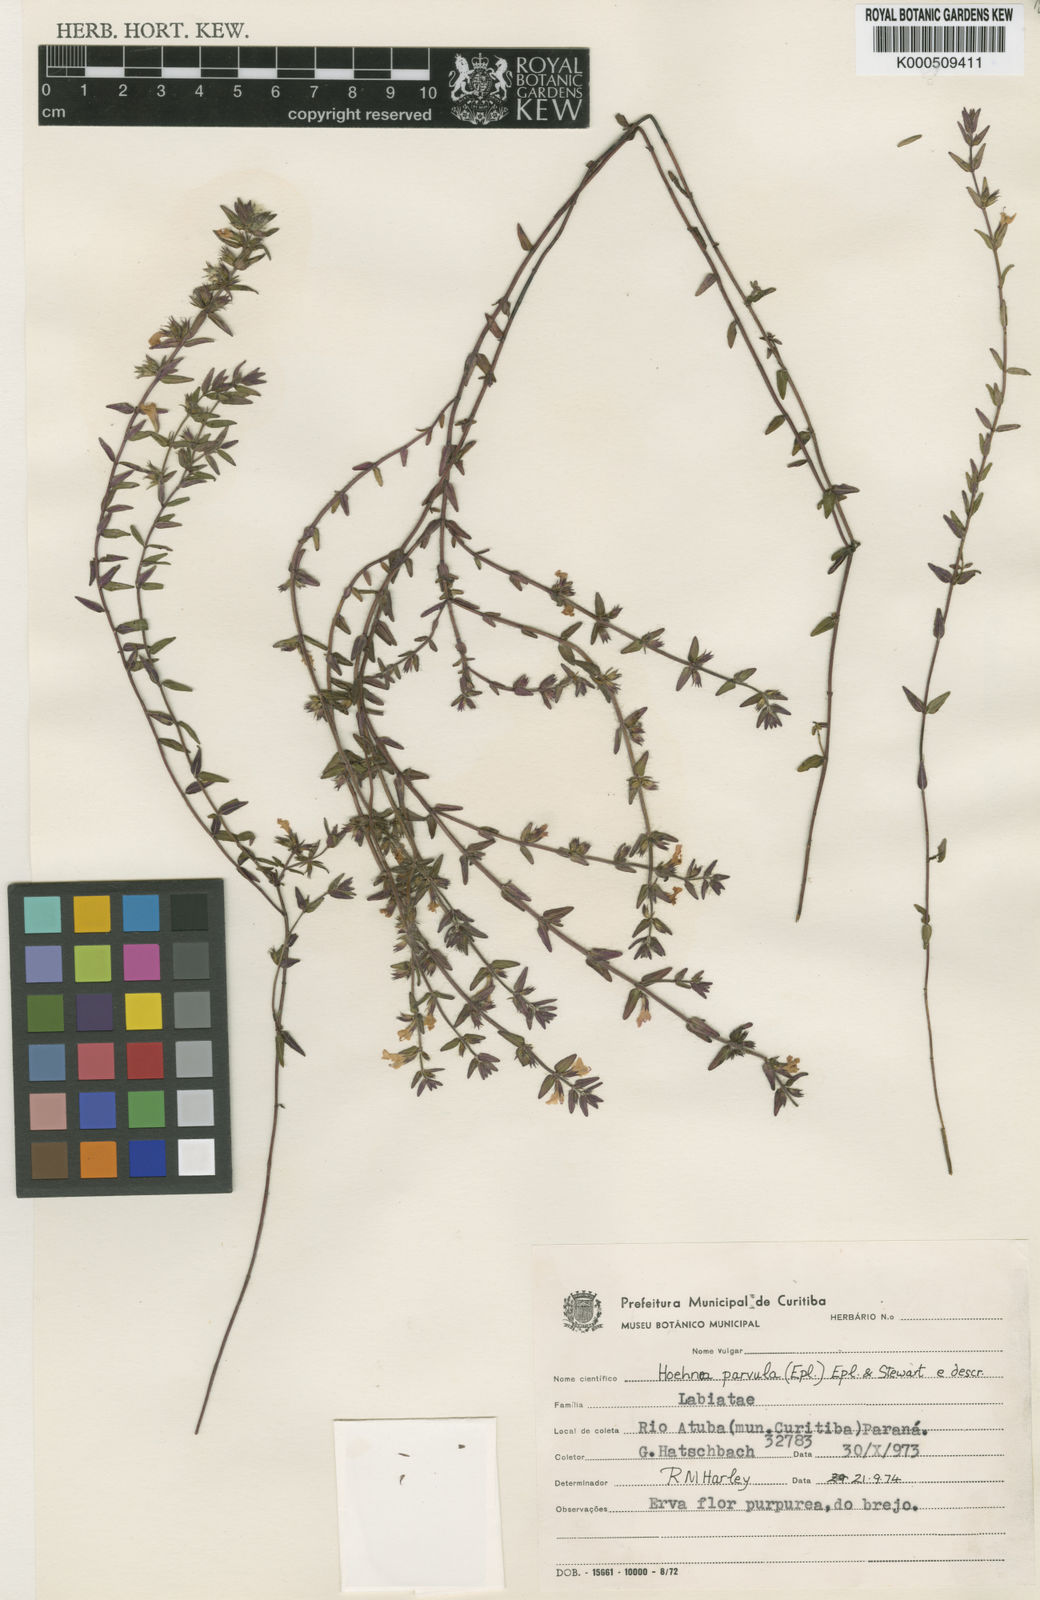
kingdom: Plantae
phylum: Tracheophyta
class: Magnoliopsida
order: Lamiales
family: Lamiaceae
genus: Hoehnea
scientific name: Hoehnea parvula
